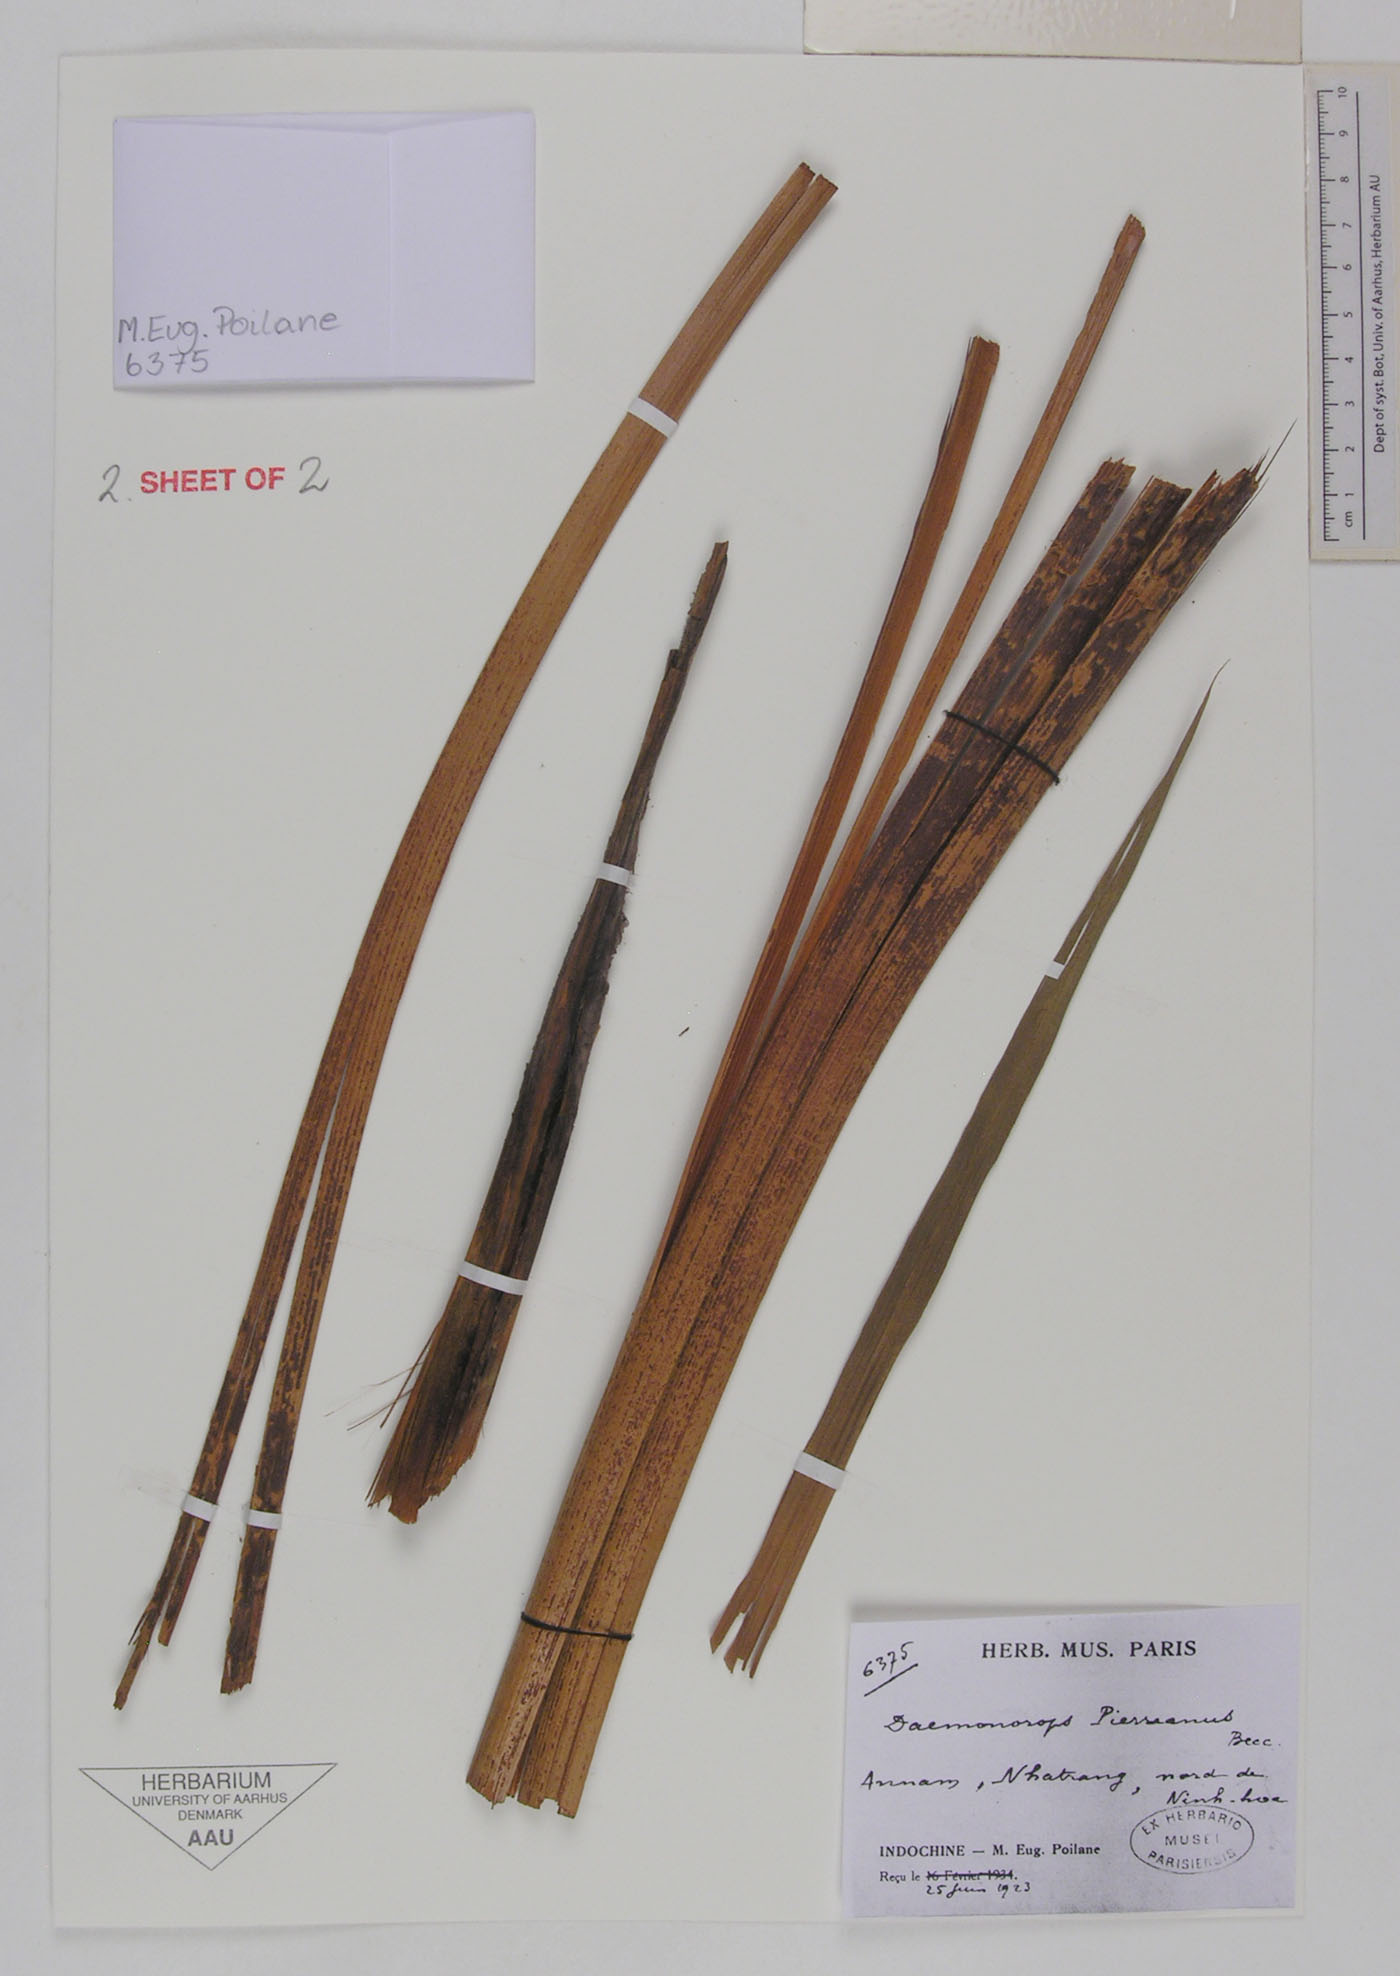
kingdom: Plantae
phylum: Tracheophyta
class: Liliopsida
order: Arecales
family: Arecaceae
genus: Calamus
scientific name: Calamus melanochaetes
